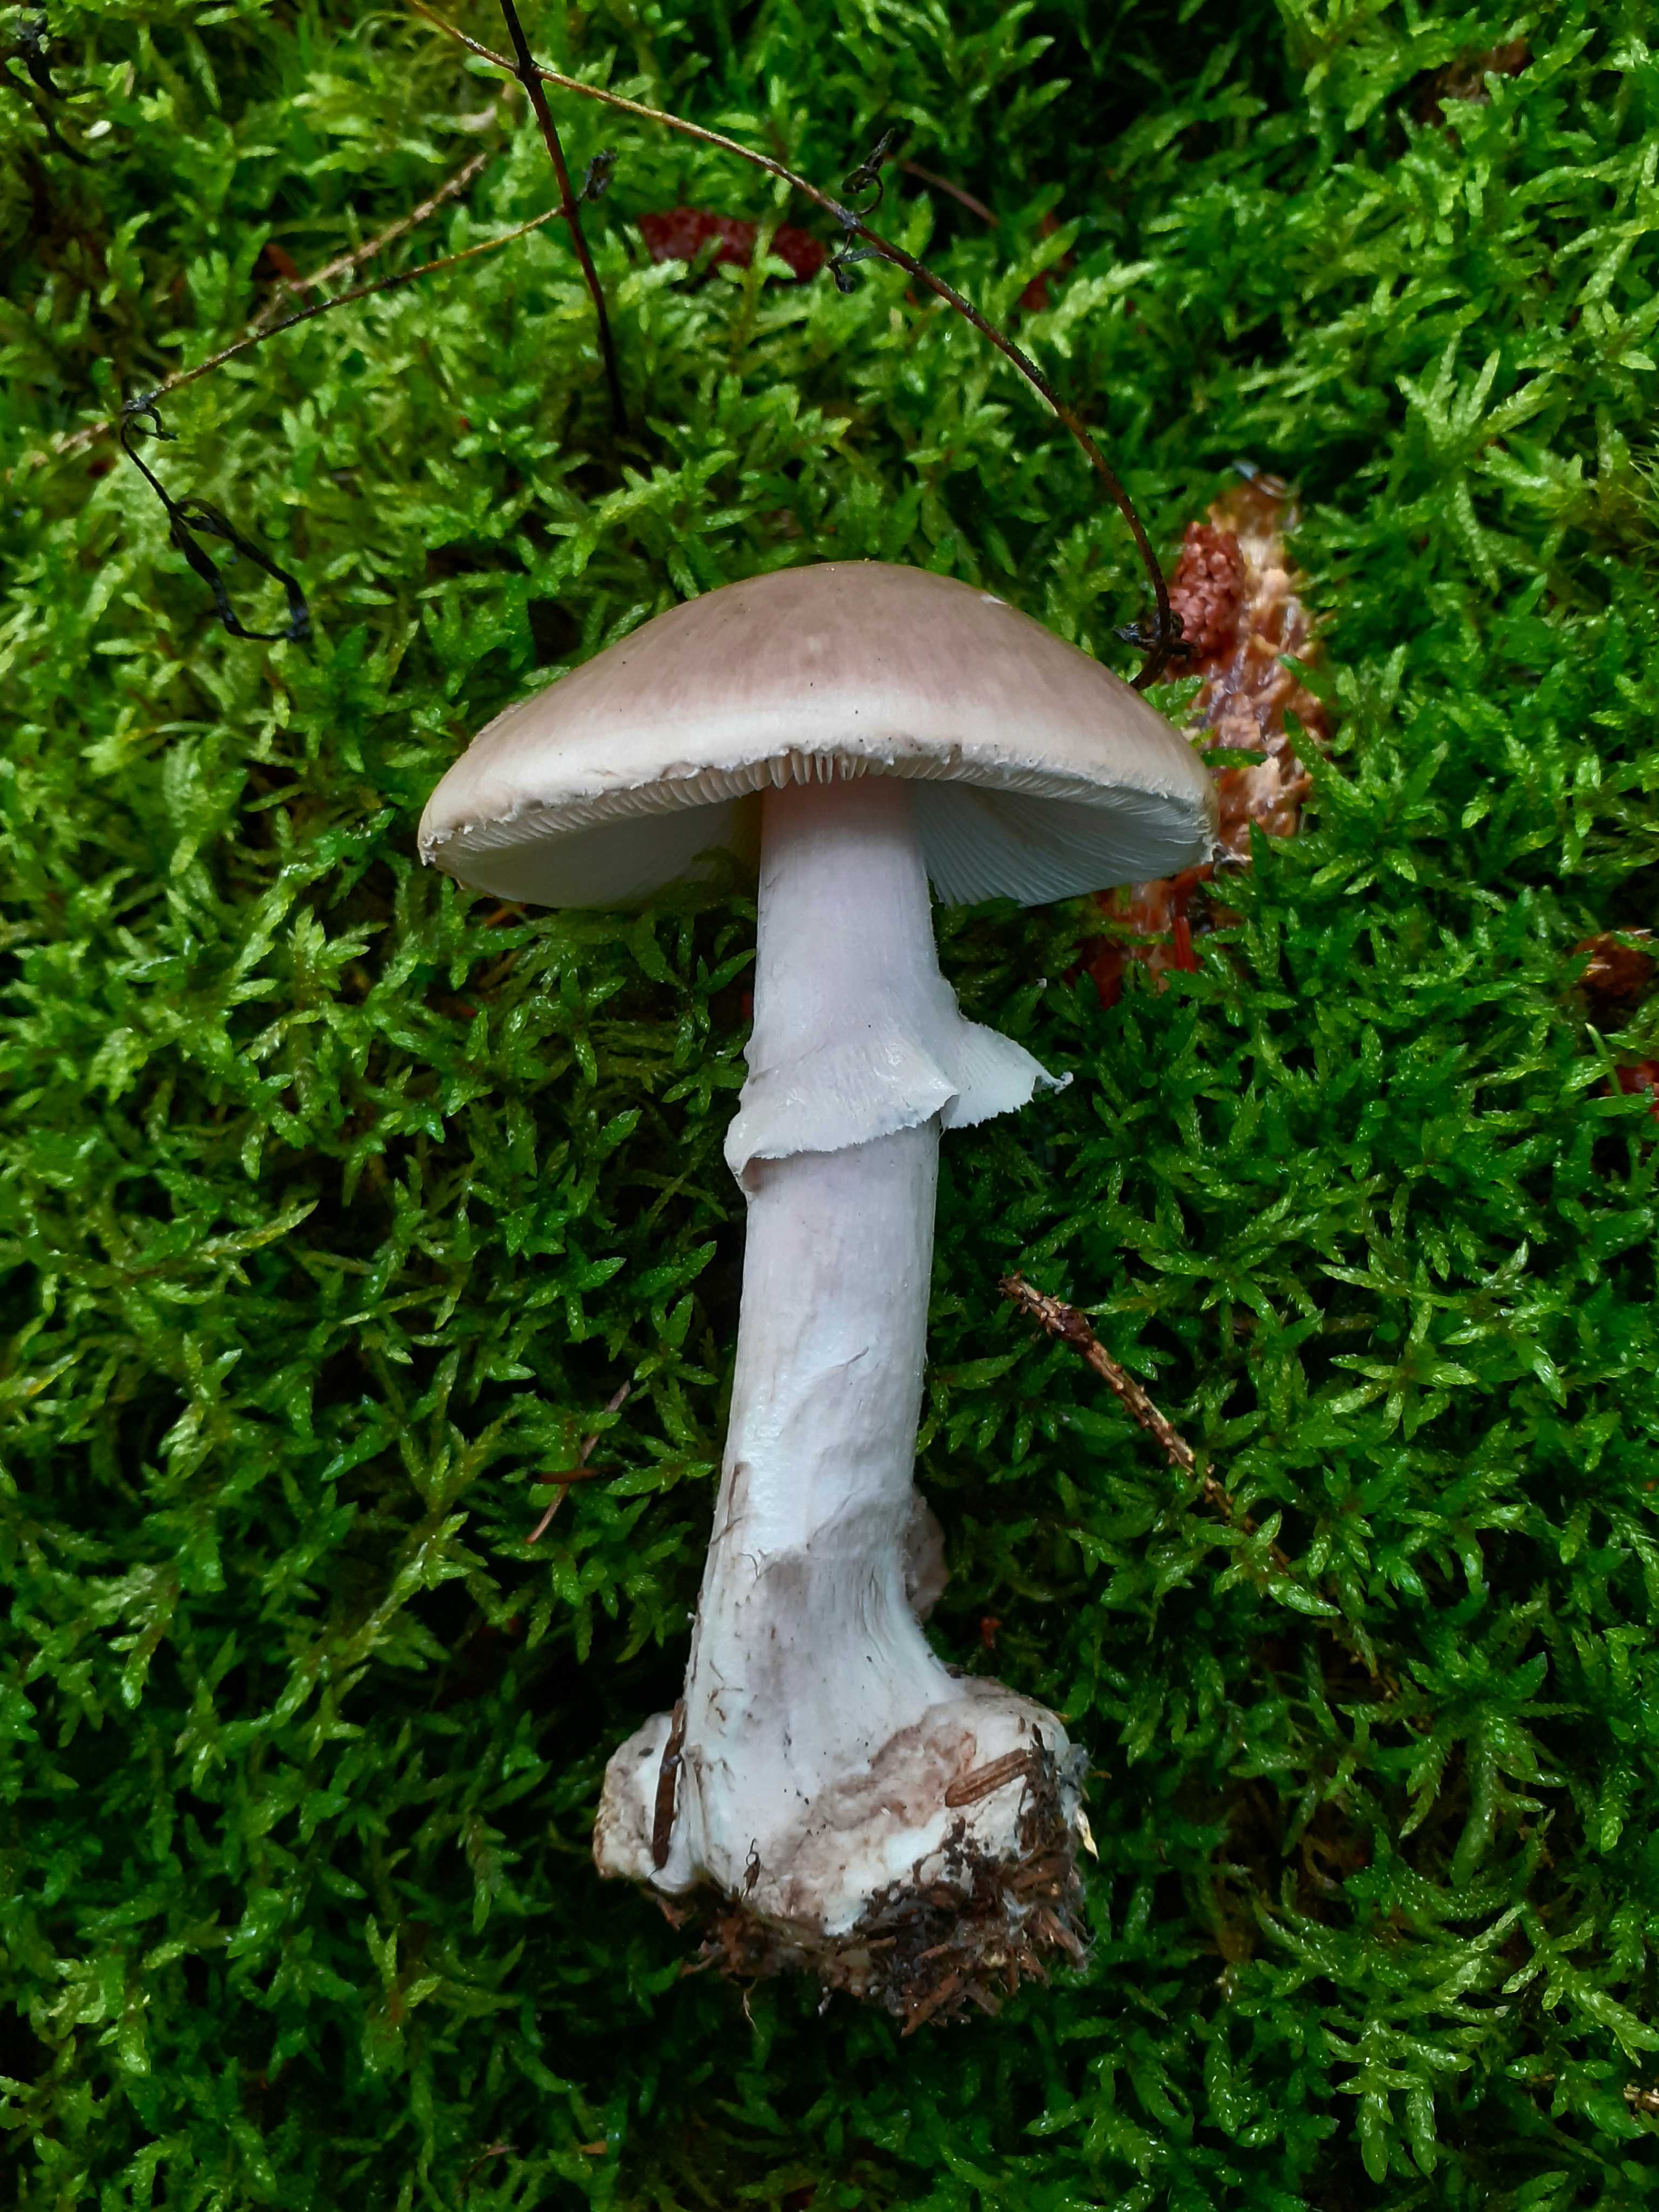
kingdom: Fungi
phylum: Basidiomycota
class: Agaricomycetes
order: Agaricales
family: Amanitaceae
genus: Amanita
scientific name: Amanita porphyria
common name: porfyr-fluesvamp
